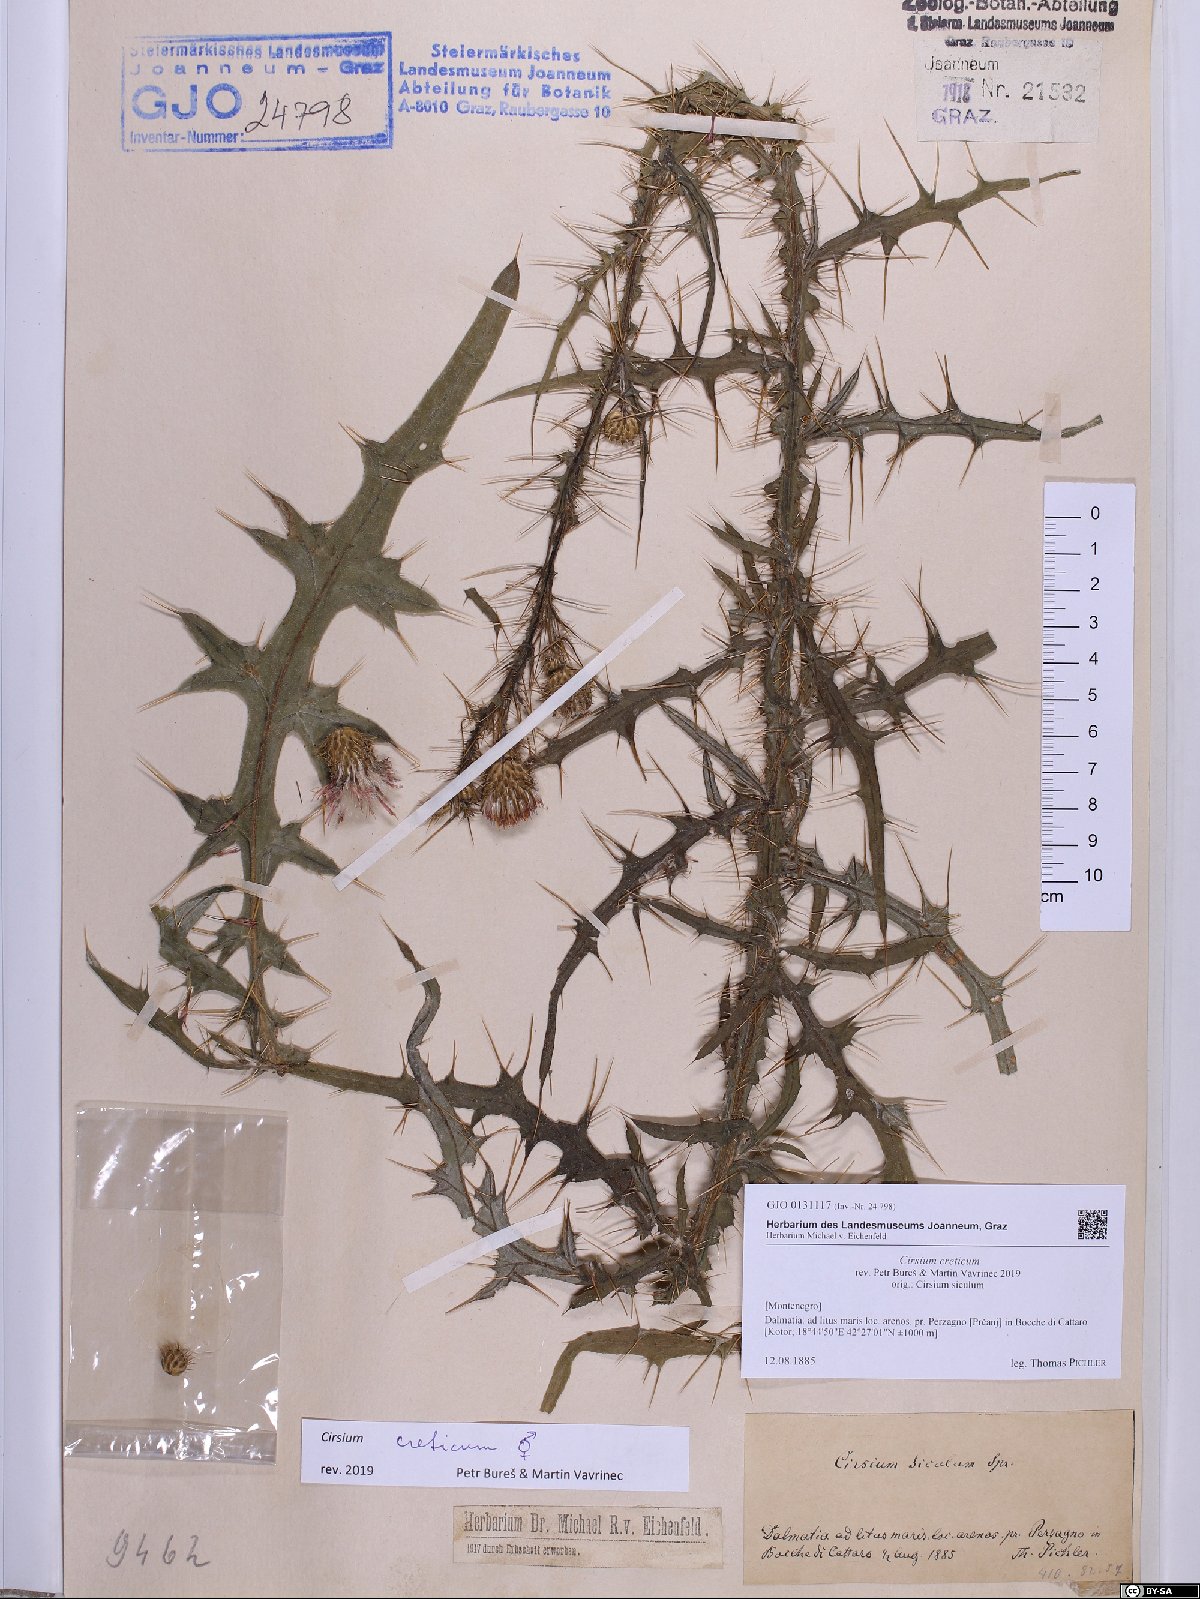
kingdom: Plantae
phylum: Tracheophyta
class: Magnoliopsida
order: Asterales
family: Asteraceae
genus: Cirsium
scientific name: Cirsium creticum
